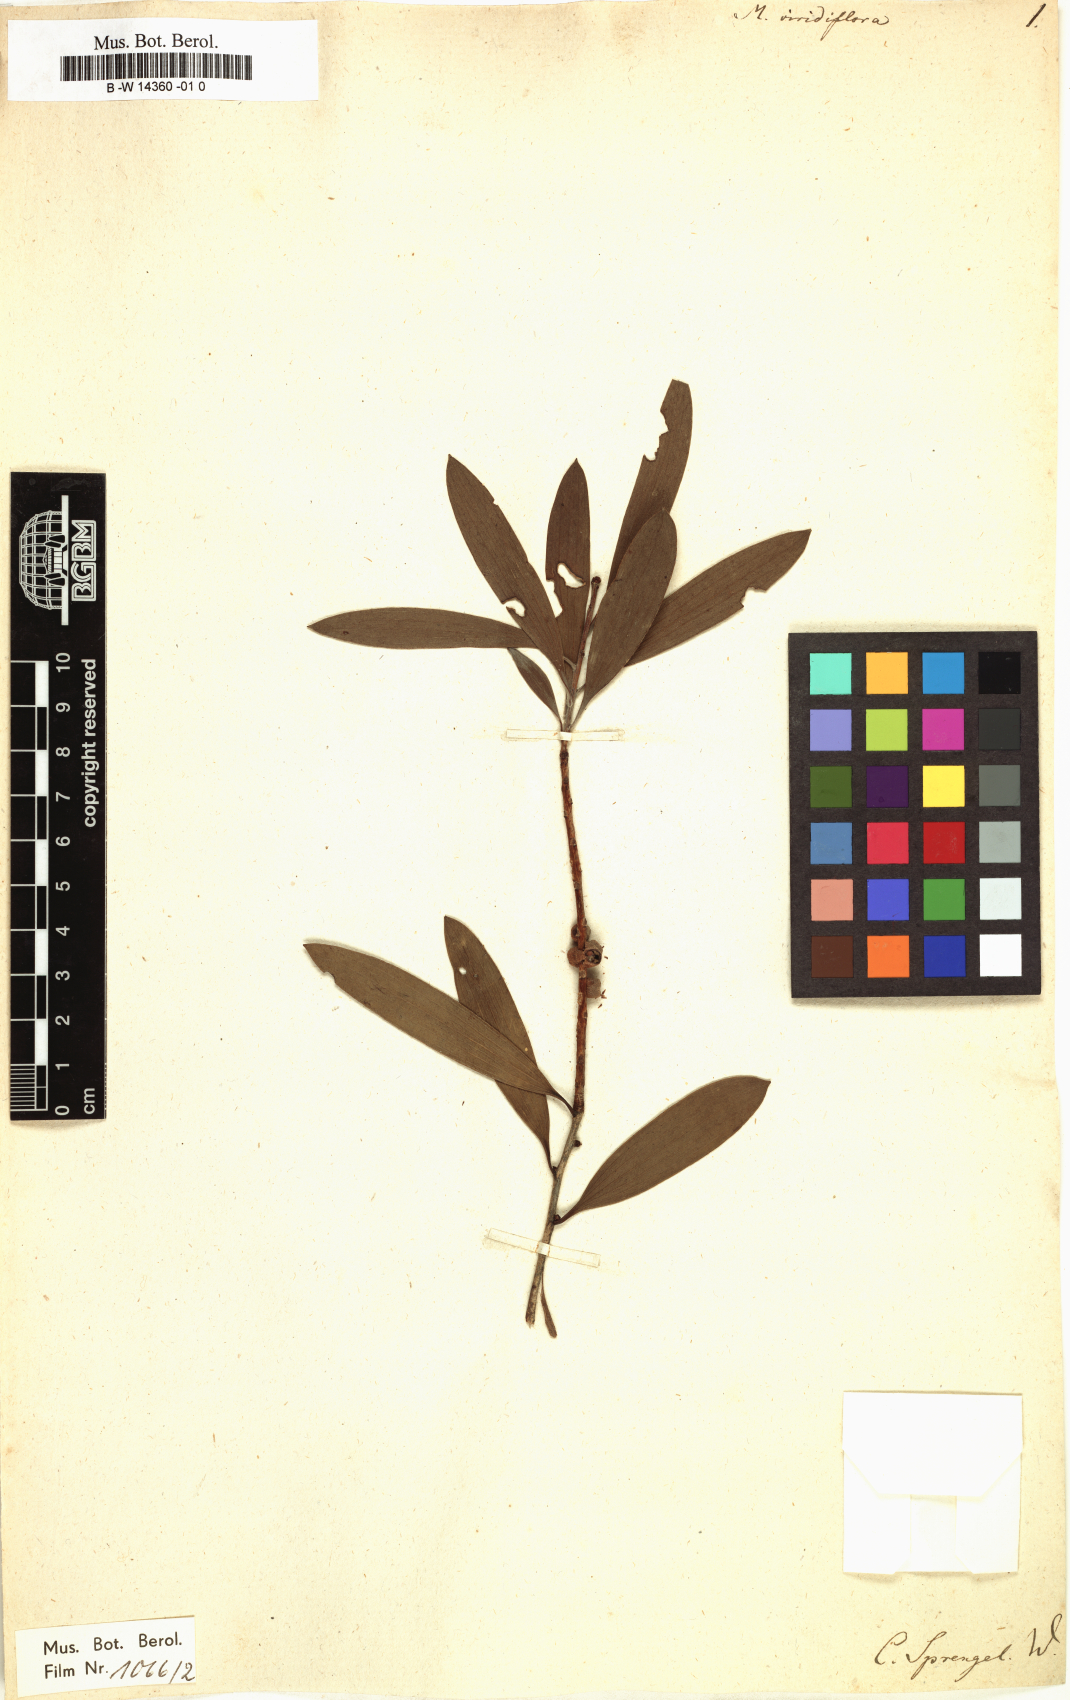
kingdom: Plantae
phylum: Tracheophyta
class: Magnoliopsida
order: Myrtales
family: Myrtaceae
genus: Melaleuca
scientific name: Melaleuca viridiflora
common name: Brown-leaved paperbark
